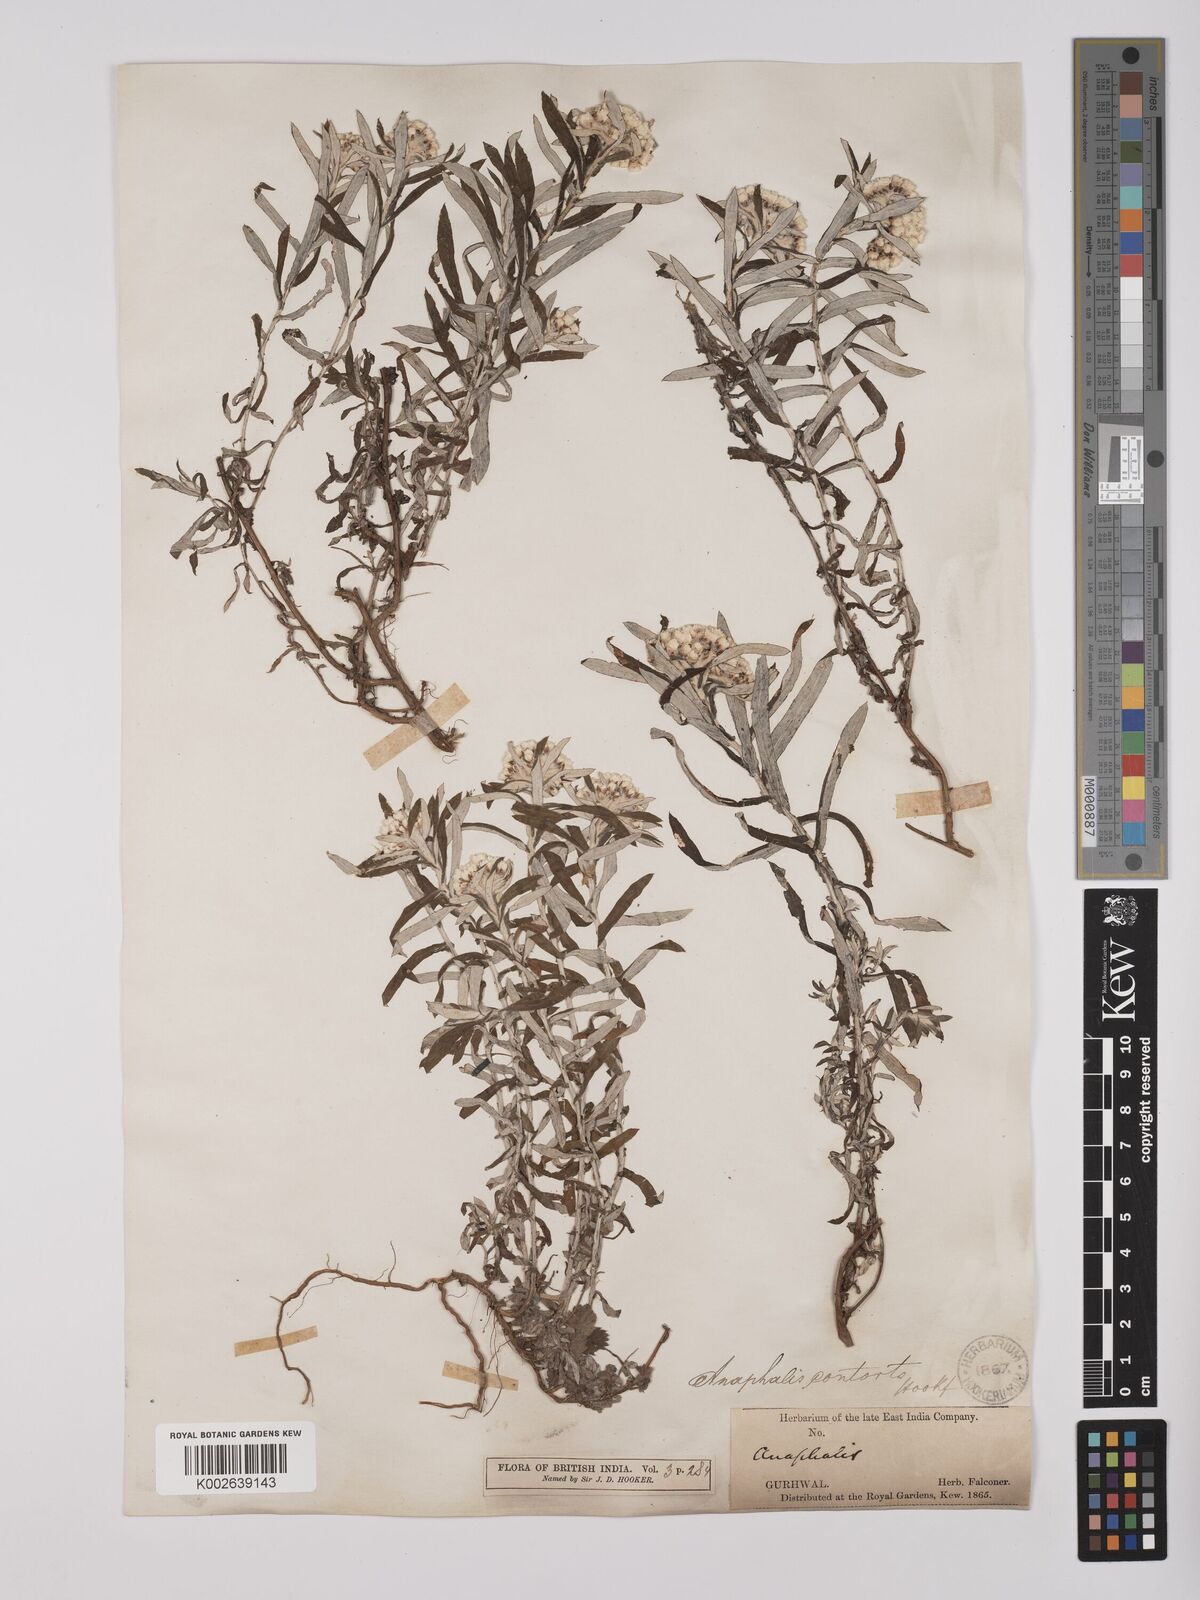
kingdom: Plantae
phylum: Tracheophyta
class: Magnoliopsida
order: Asterales
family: Asteraceae
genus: Anaphalis
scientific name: Anaphalis contorta
